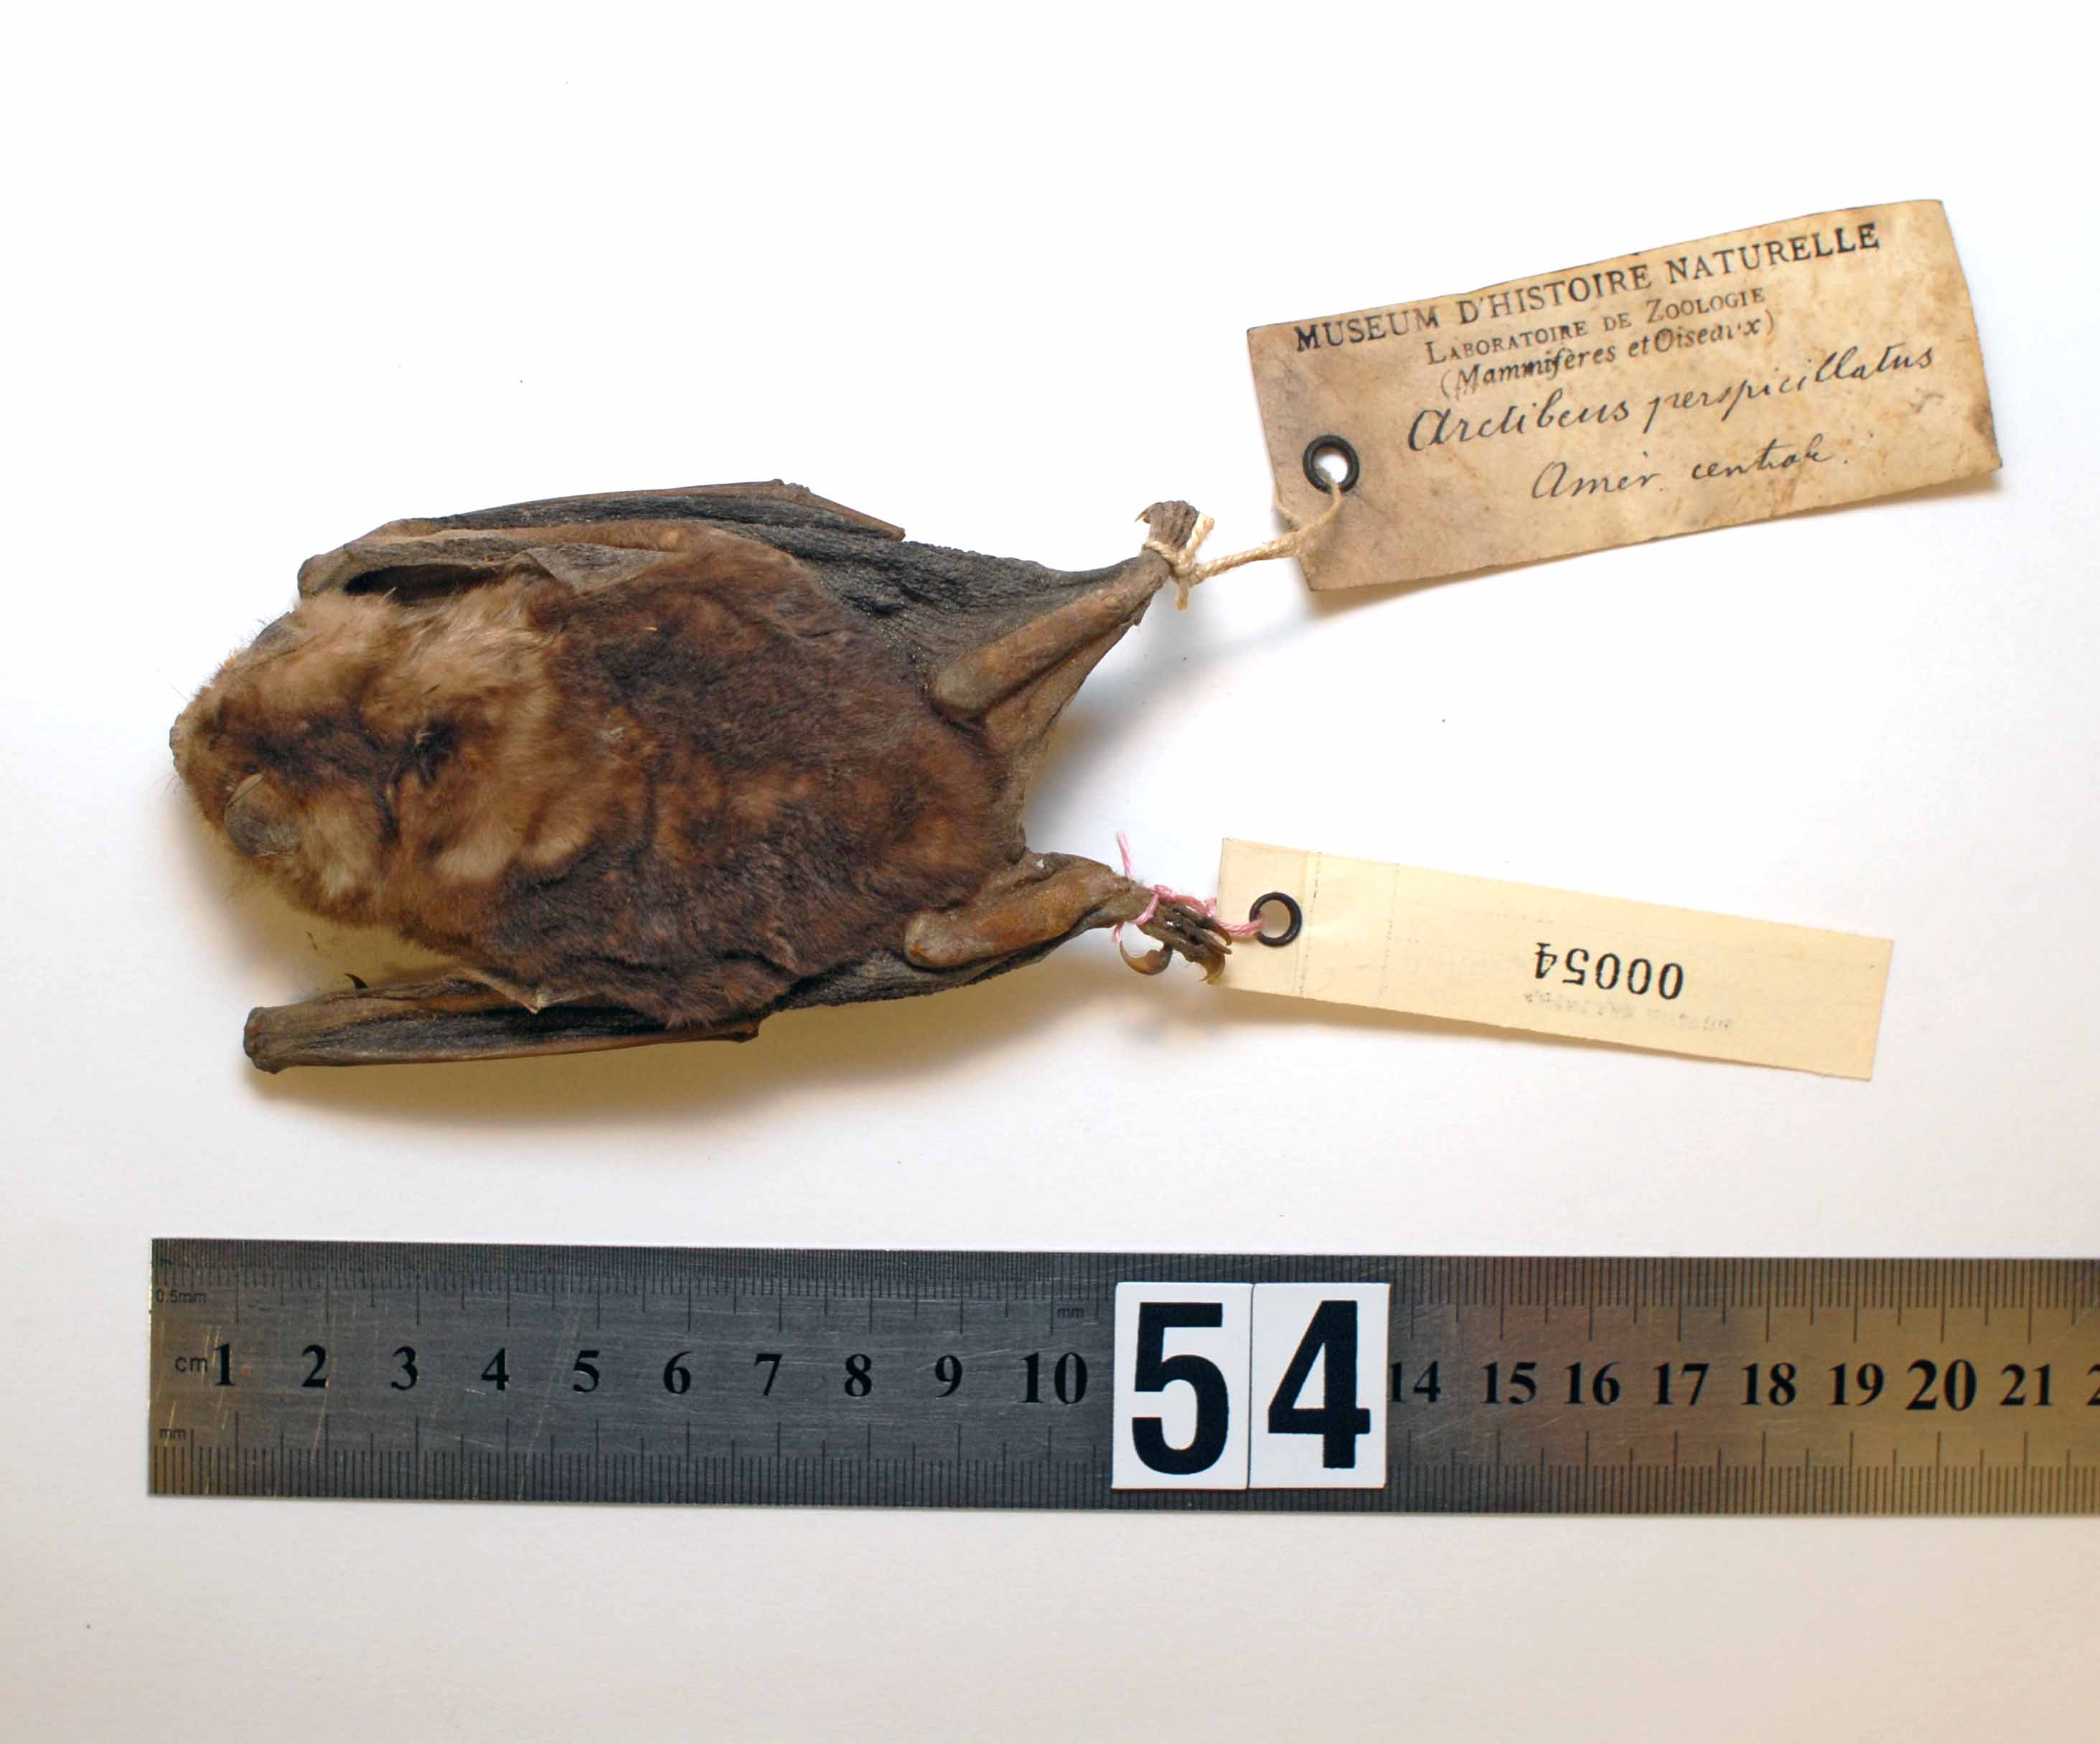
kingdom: Animalia
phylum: Chordata
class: Mammalia
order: Chiroptera
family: Phyllostomidae
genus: Artibeus
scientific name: Artibeus
